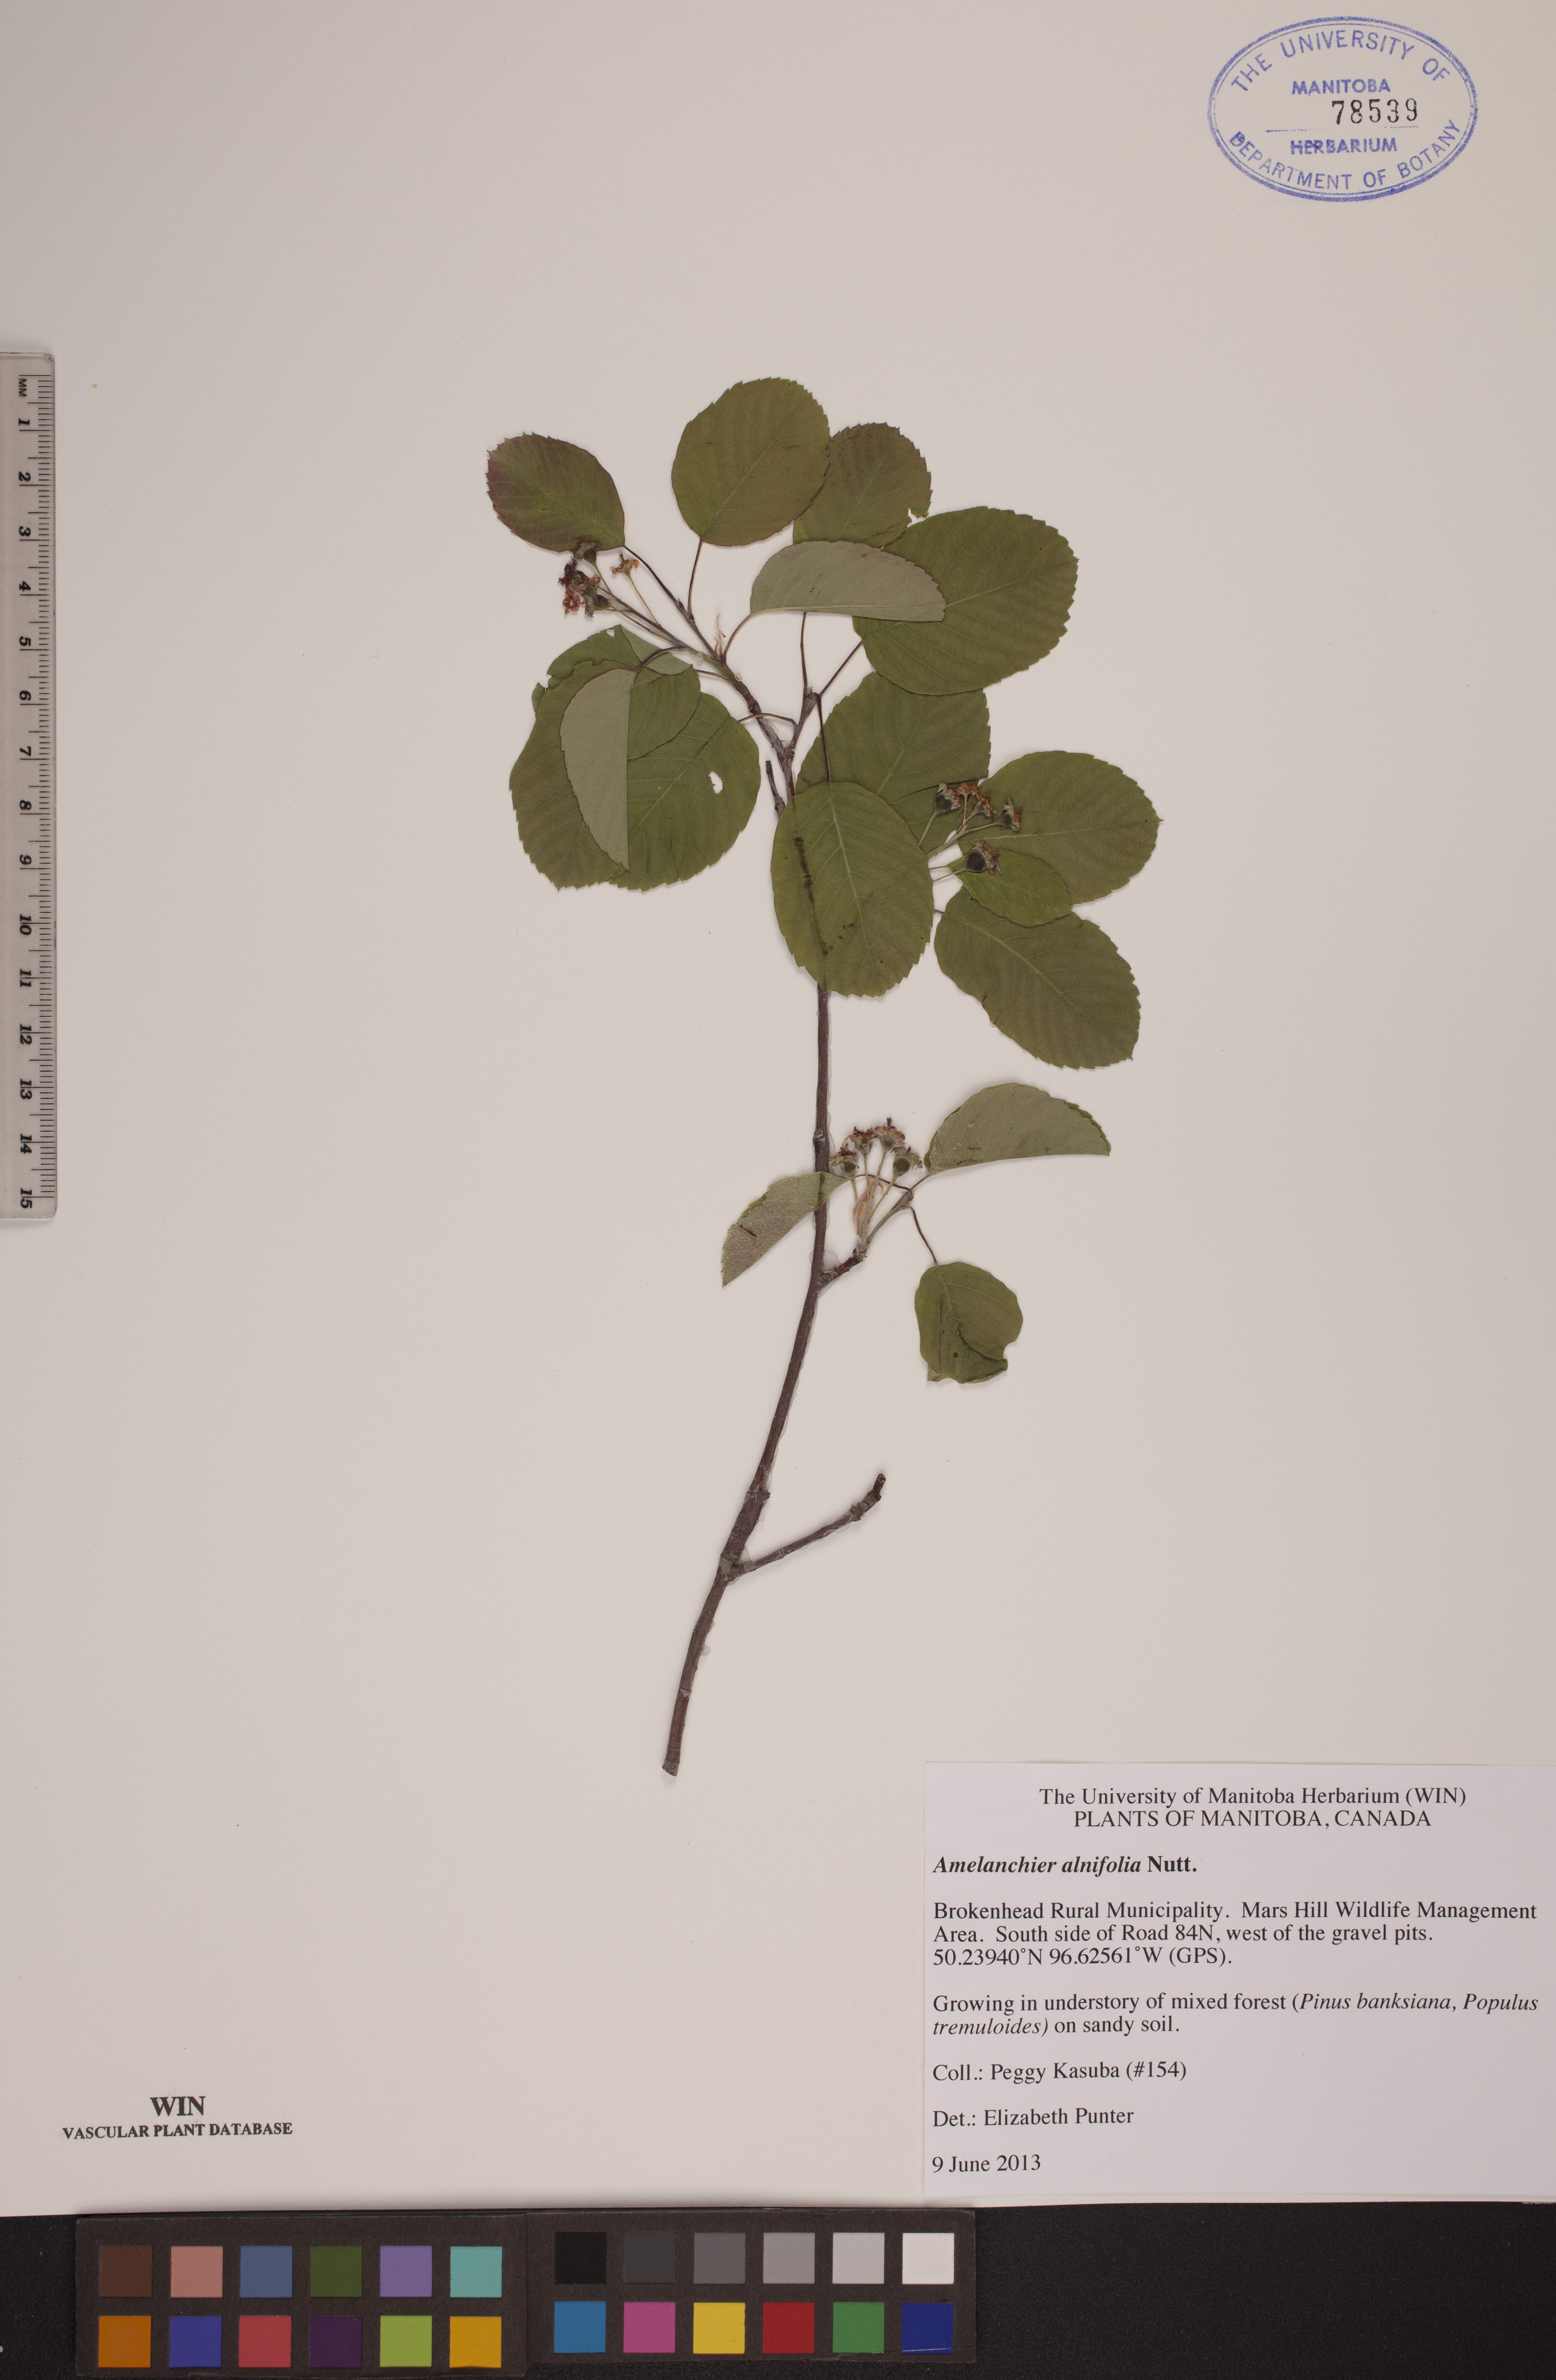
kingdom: Plantae
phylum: Tracheophyta
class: Magnoliopsida
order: Rosales
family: Rosaceae
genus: Amelanchier
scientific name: Amelanchier alnifolia
